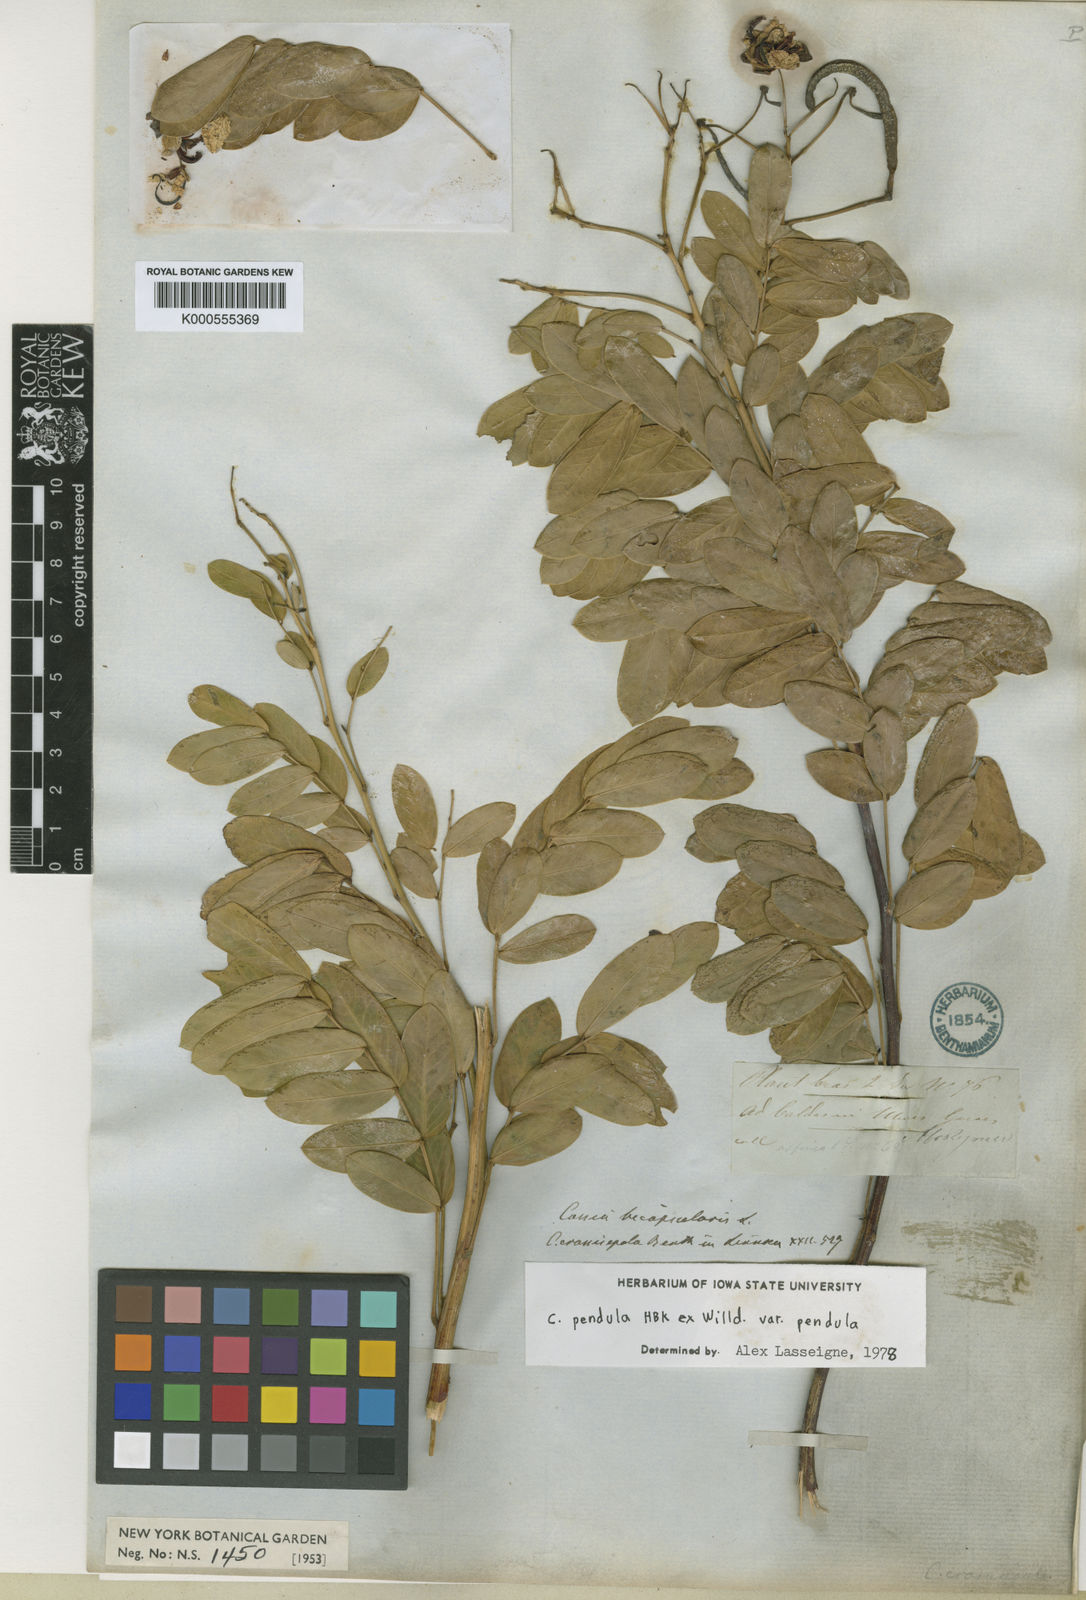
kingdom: Plantae
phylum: Tracheophyta
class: Magnoliopsida
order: Fabales
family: Fabaceae
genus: Senna
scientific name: Senna pendula
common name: Easter cassia
